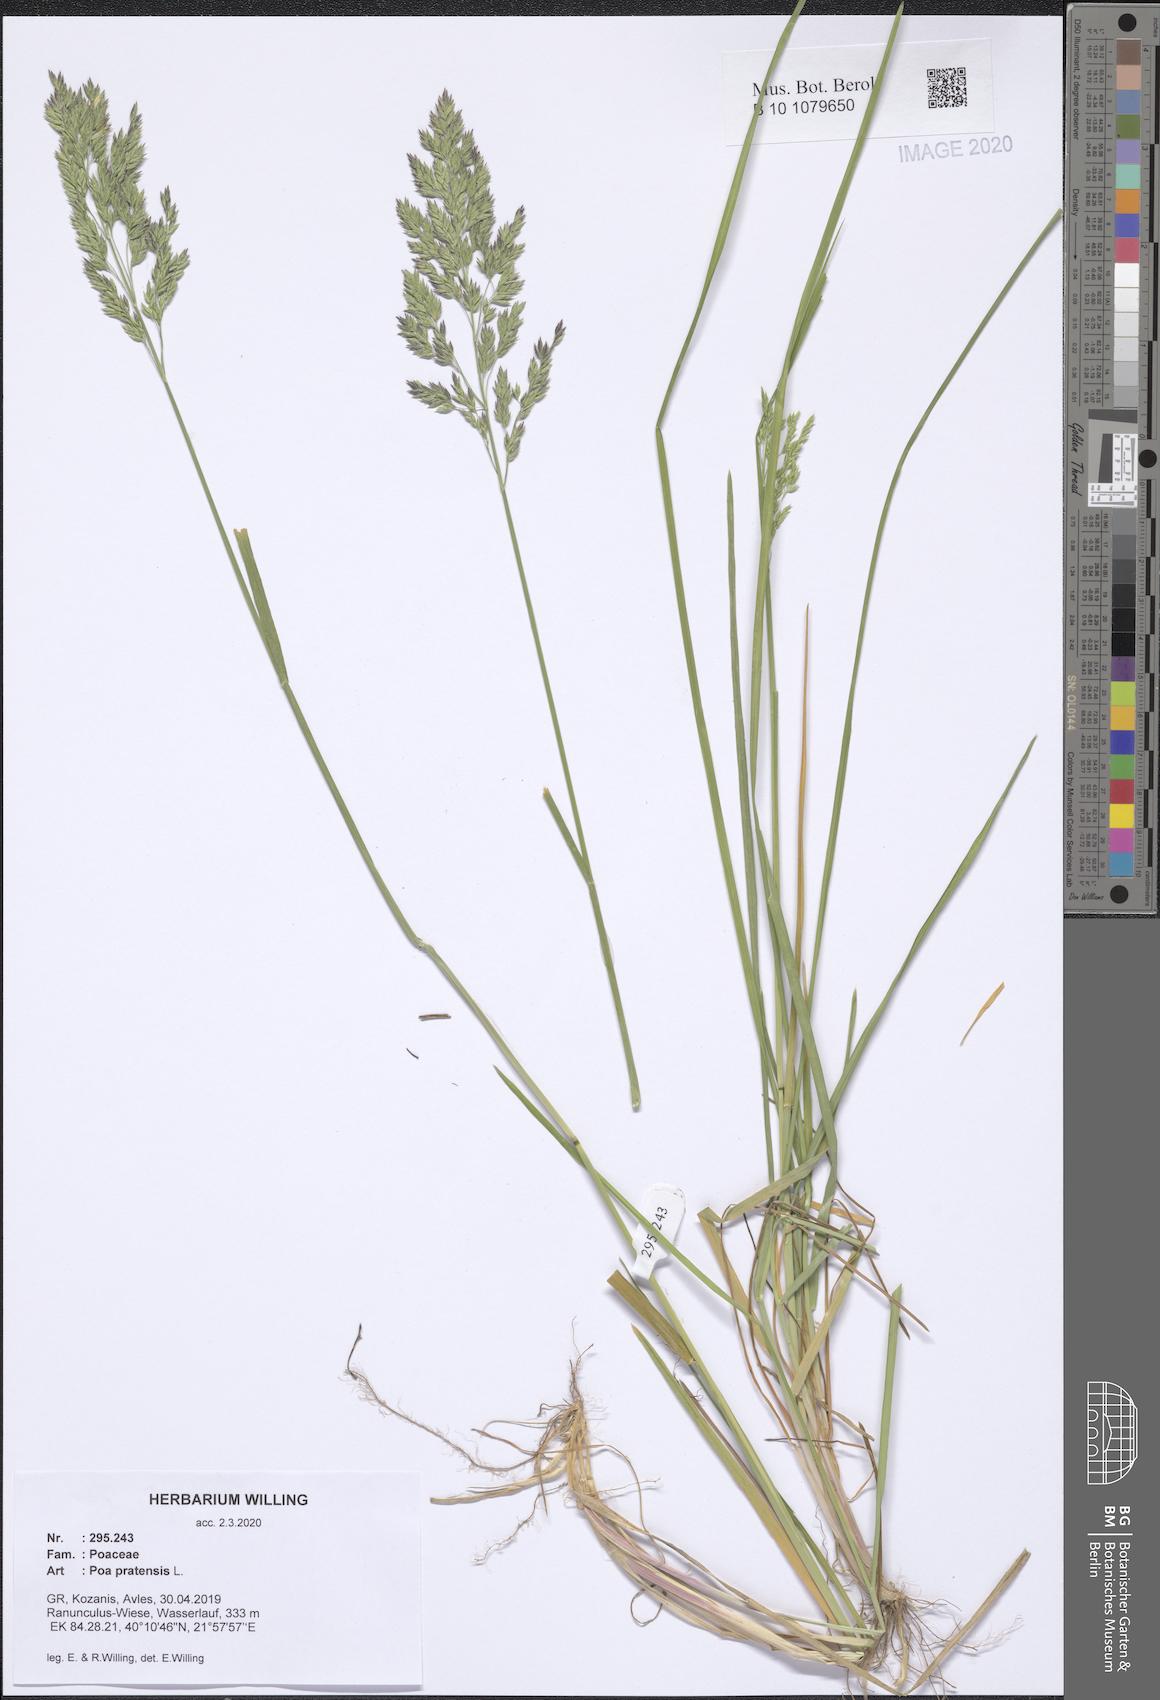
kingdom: Plantae
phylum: Tracheophyta
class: Liliopsida
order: Poales
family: Poaceae
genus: Poa
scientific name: Poa pratensis
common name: Kentucky bluegrass
